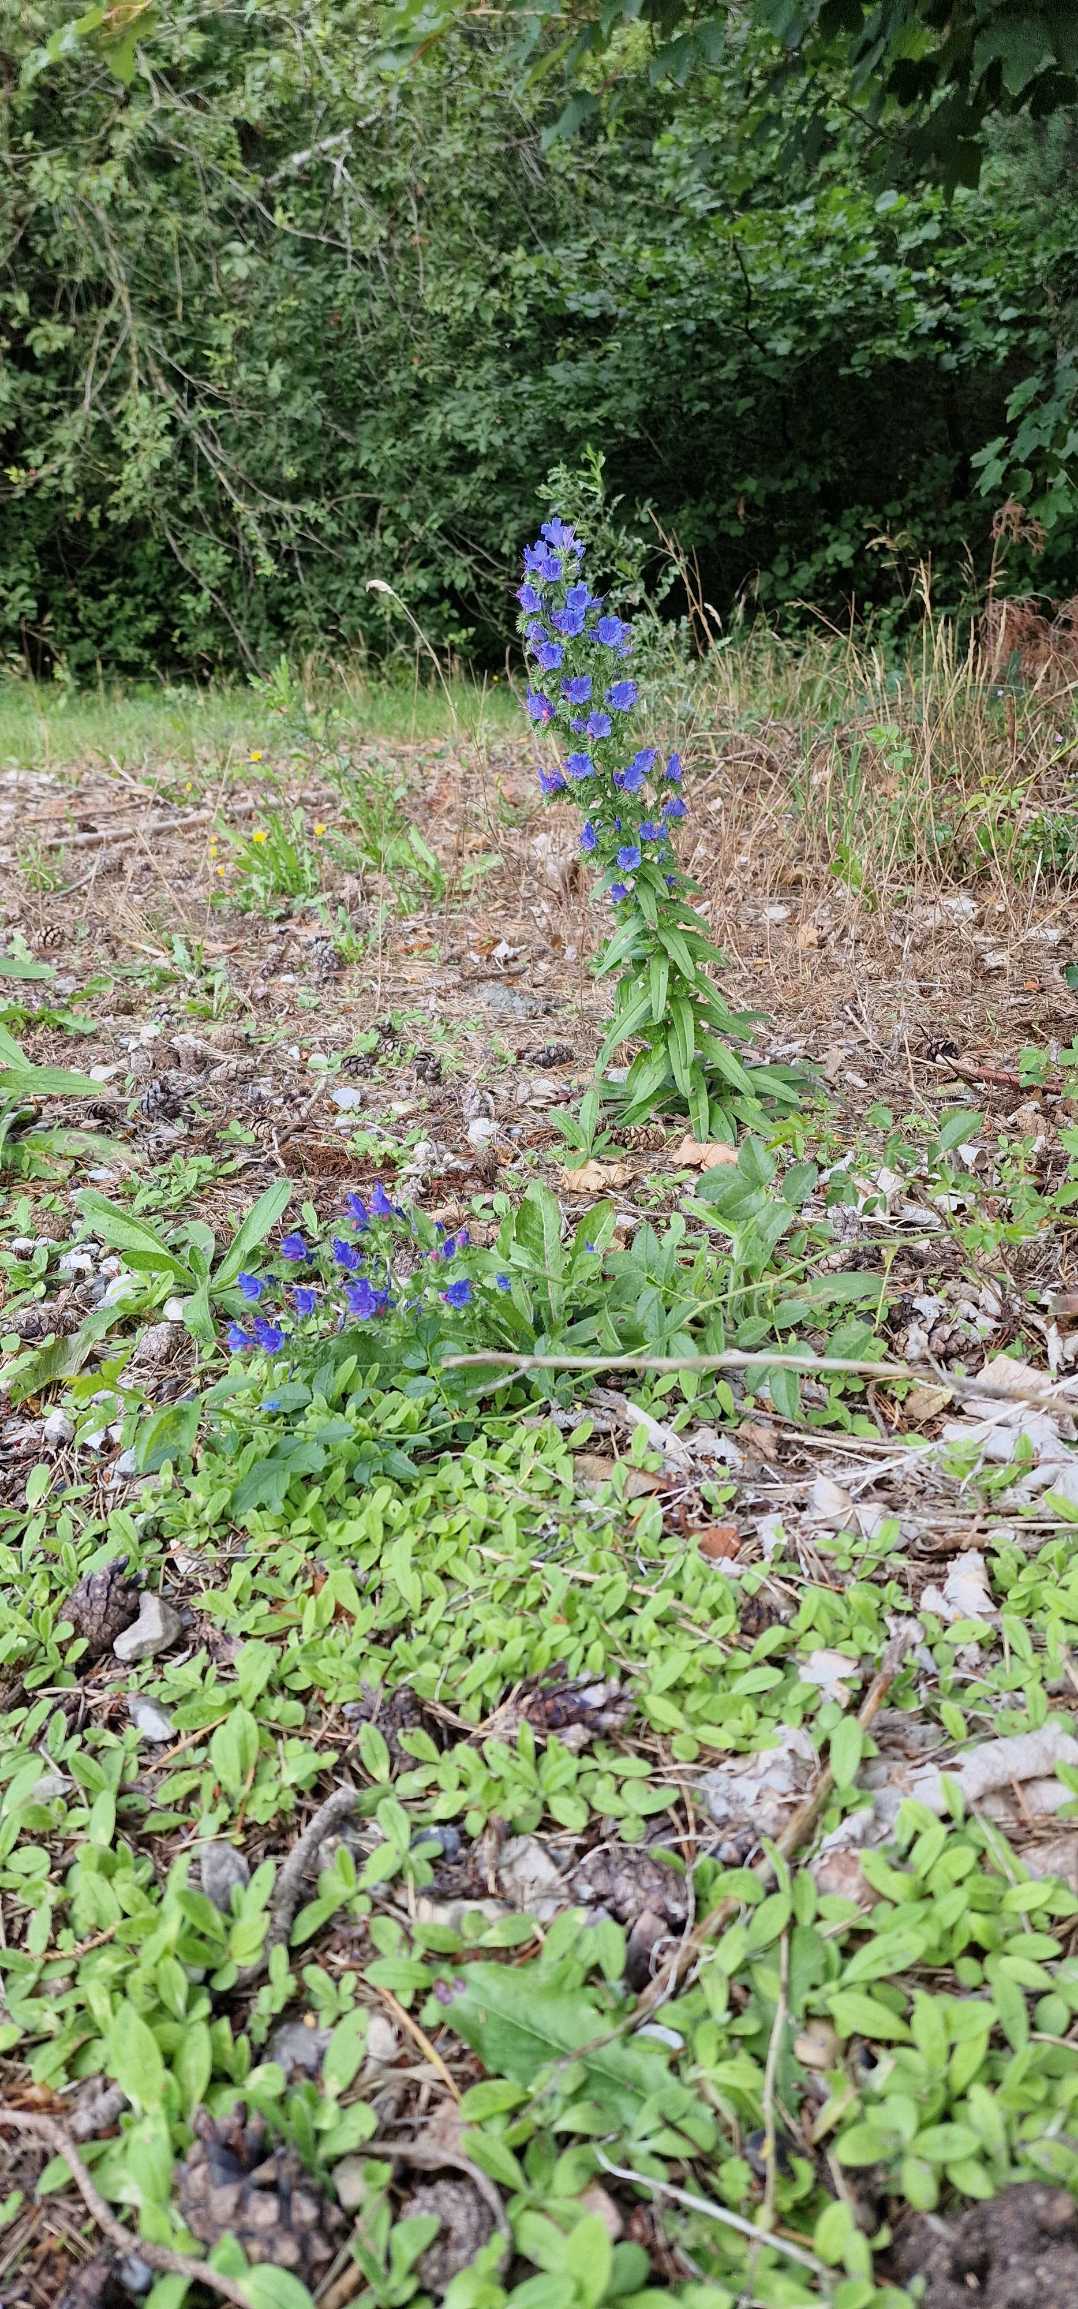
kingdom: Plantae
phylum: Tracheophyta
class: Magnoliopsida
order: Boraginales
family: Boraginaceae
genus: Echium
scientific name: Echium vulgare
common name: Slangehoved
